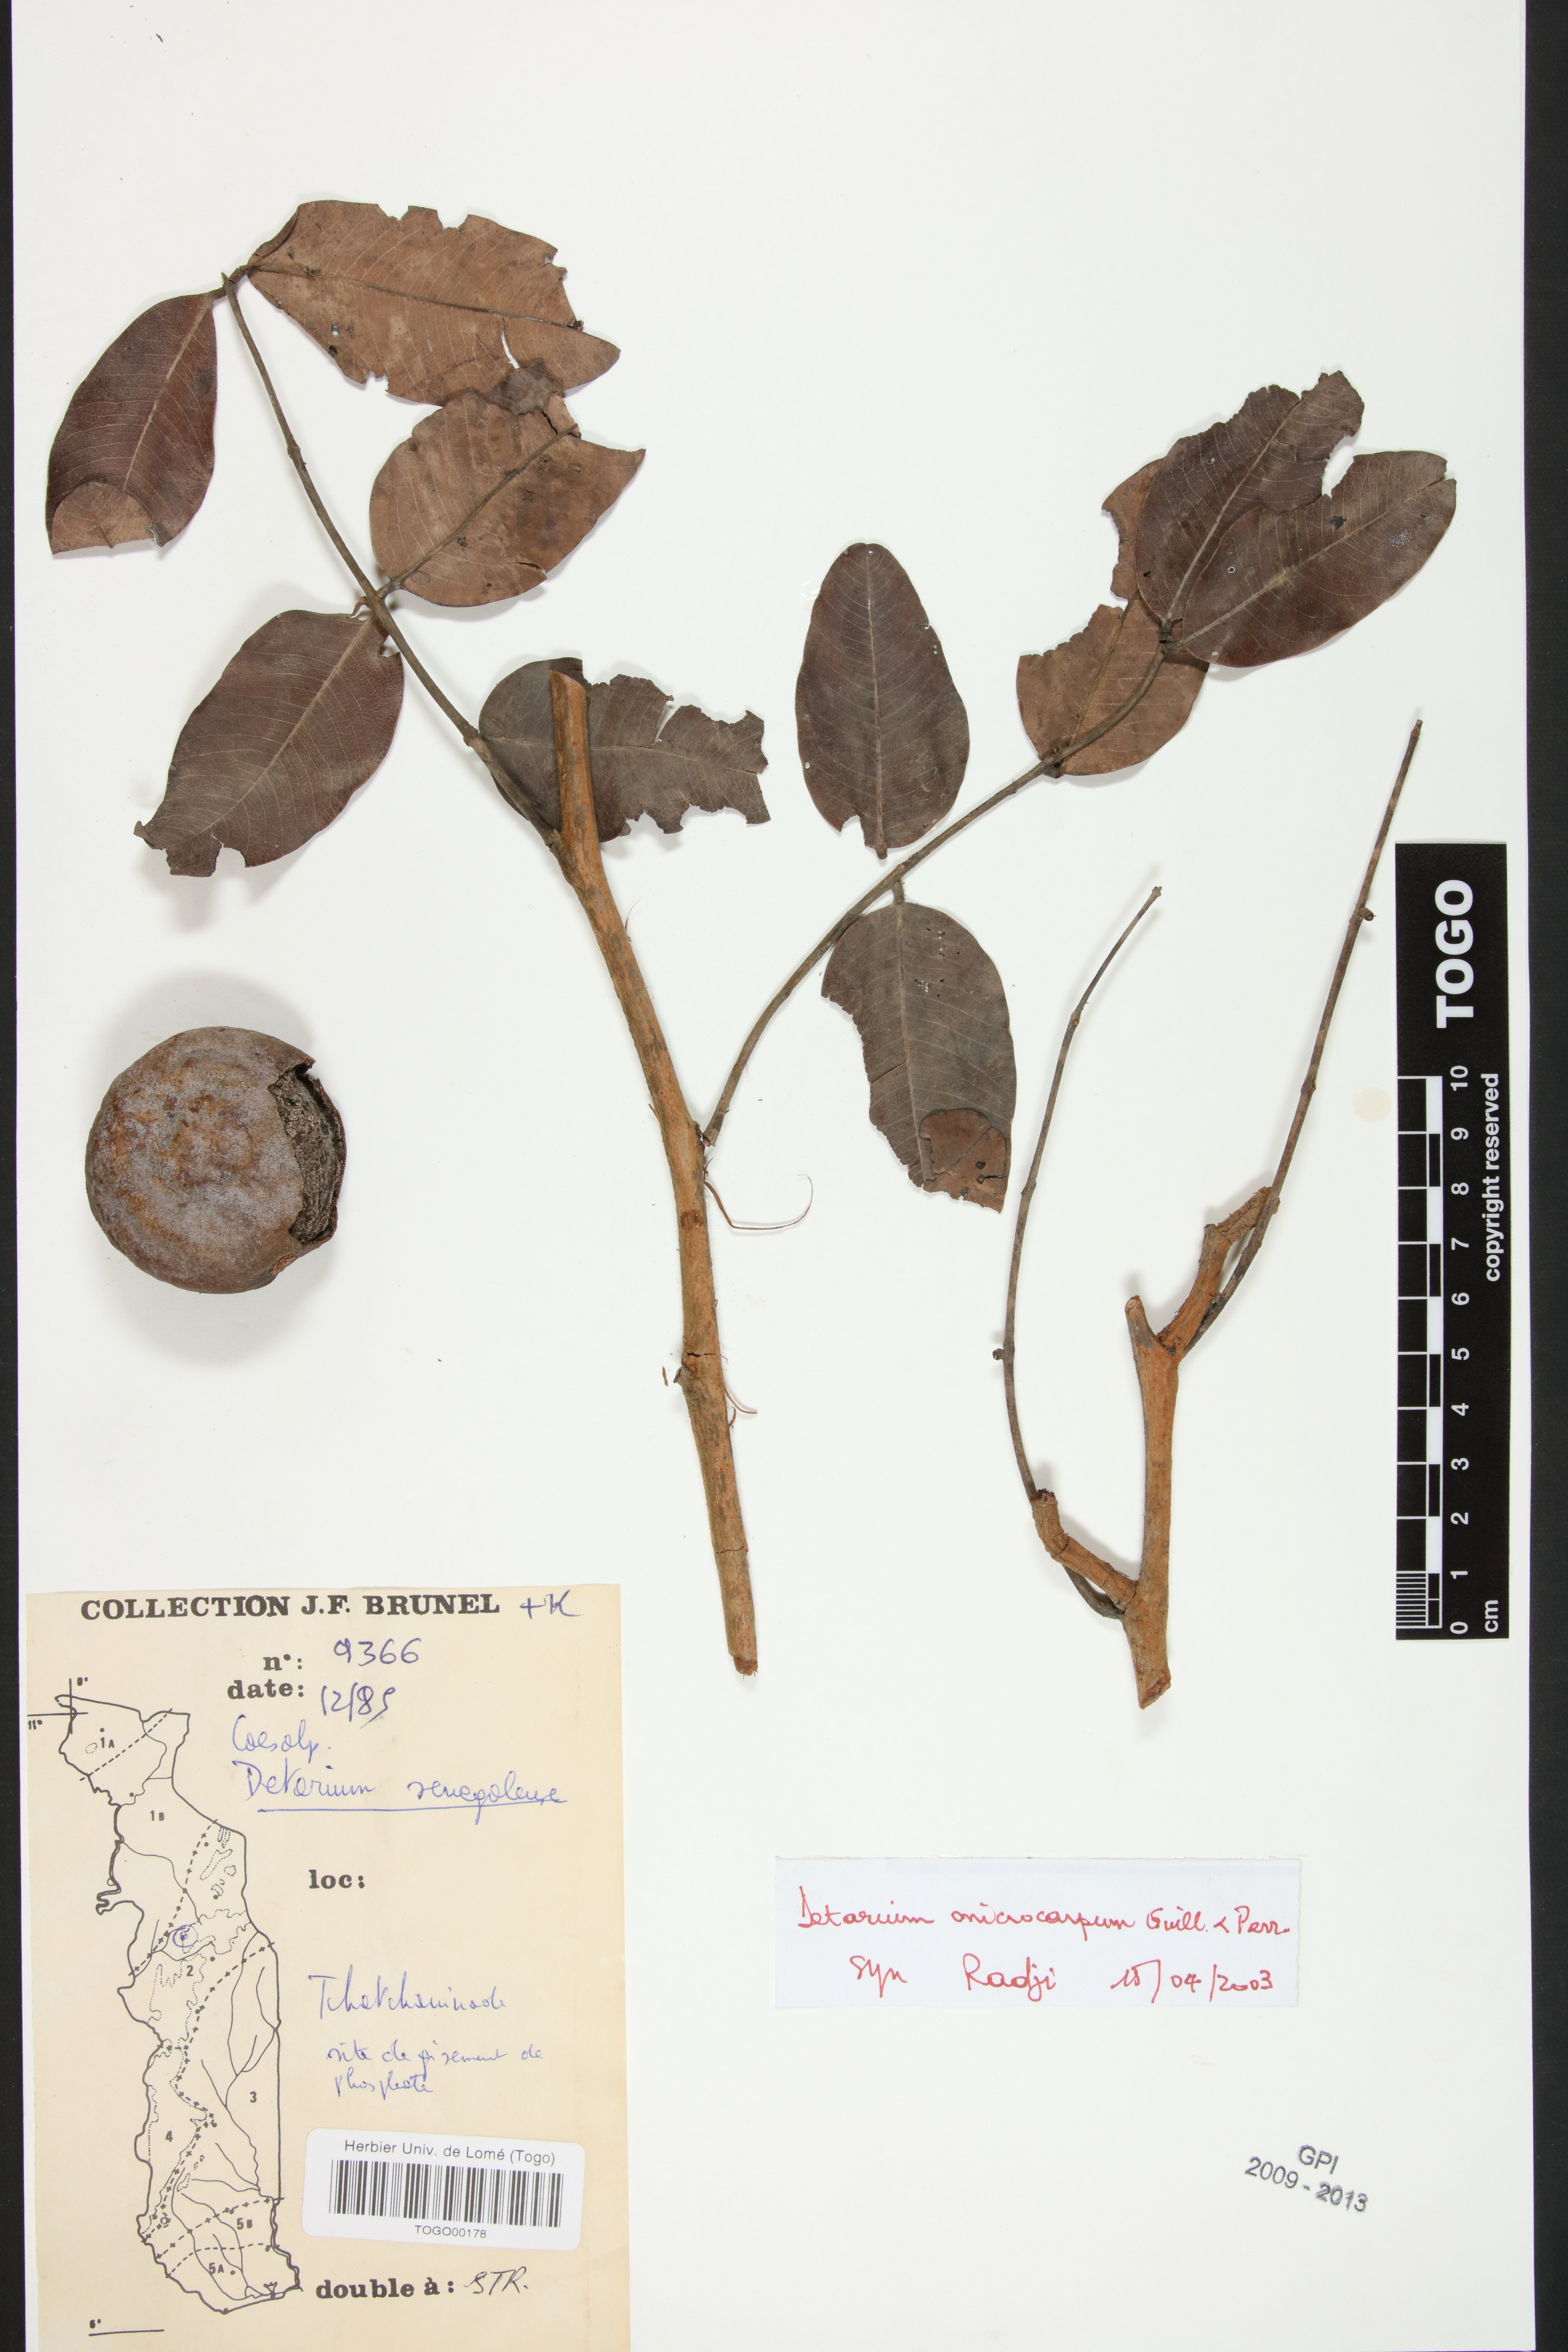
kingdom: Plantae
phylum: Tracheophyta
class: Magnoliopsida
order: Fabales
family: Fabaceae
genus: Detarium
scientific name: Detarium microcarpum
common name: Sweet dattock
